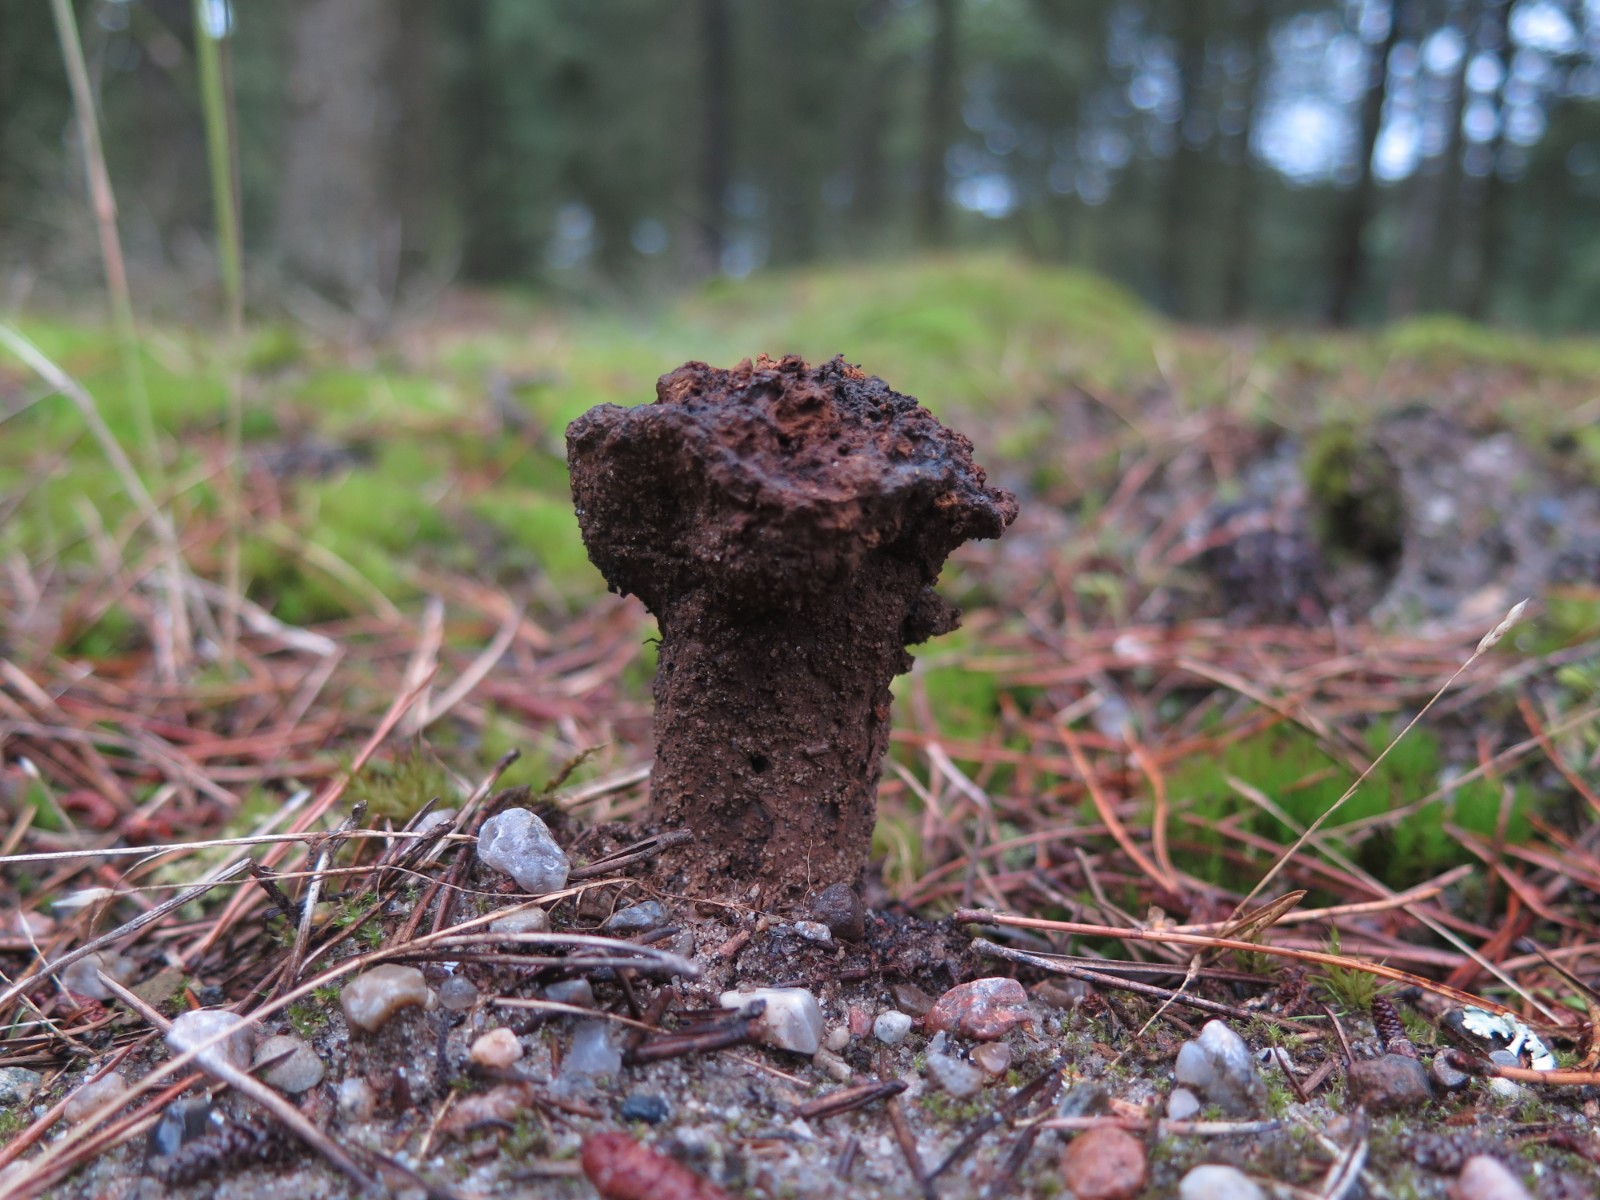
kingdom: Fungi
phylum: Basidiomycota
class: Agaricomycetes
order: Boletales
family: Sclerodermataceae
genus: Pisolithus
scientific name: Pisolithus capsulifer
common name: farvebold
